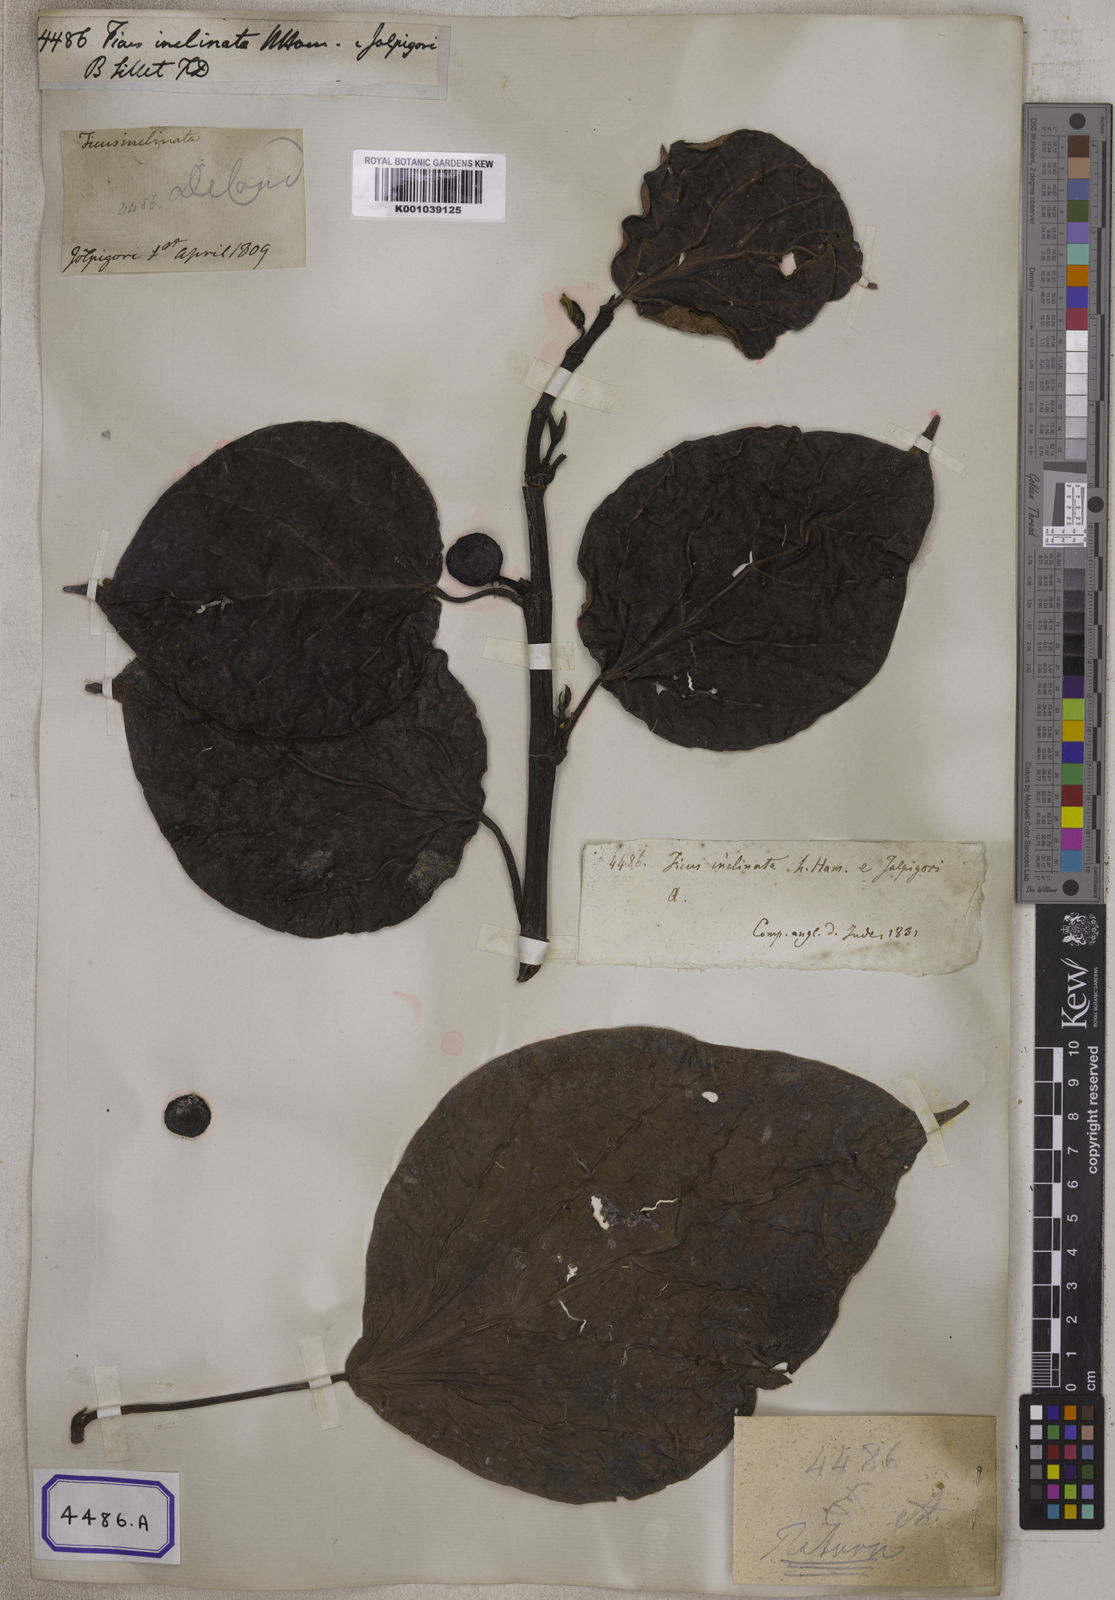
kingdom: Plantae
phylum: Tracheophyta
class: Magnoliopsida
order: Rosales
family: Moraceae
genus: Ficus
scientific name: Ficus
